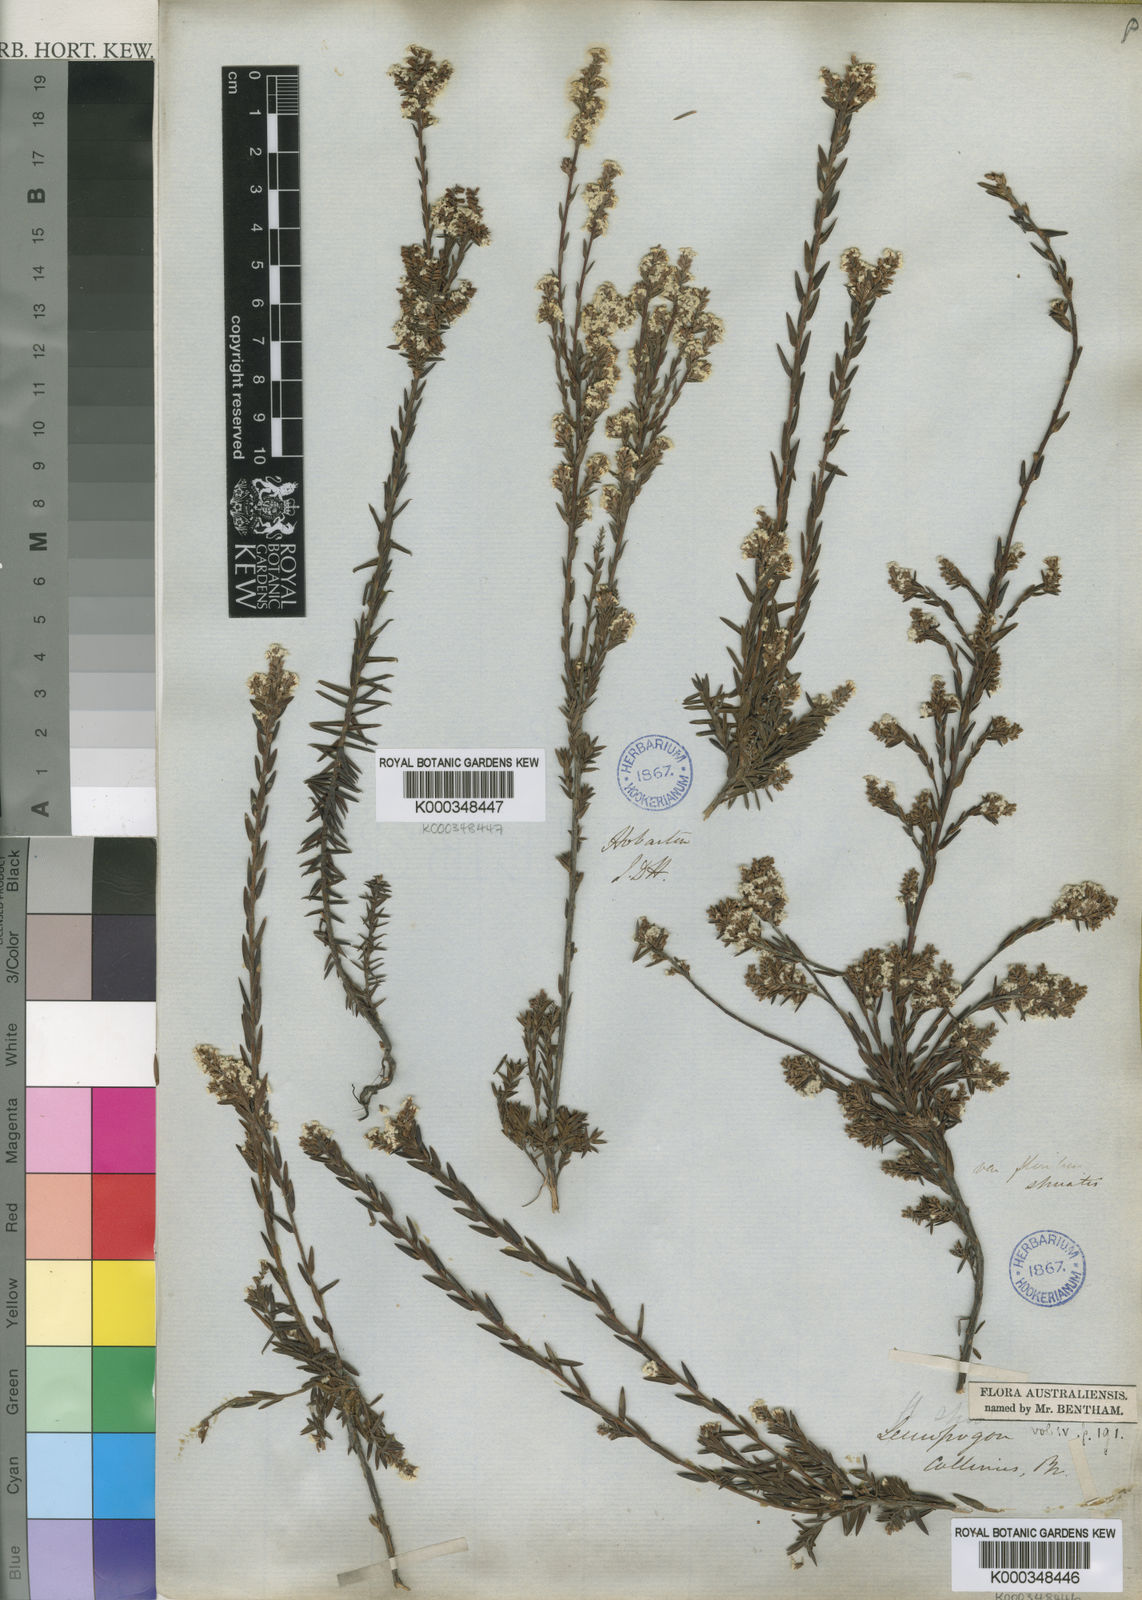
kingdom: Plantae
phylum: Tracheophyta
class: Magnoliopsida
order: Ericales
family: Ericaceae
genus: Leucopogon
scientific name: Leucopogon collinus
